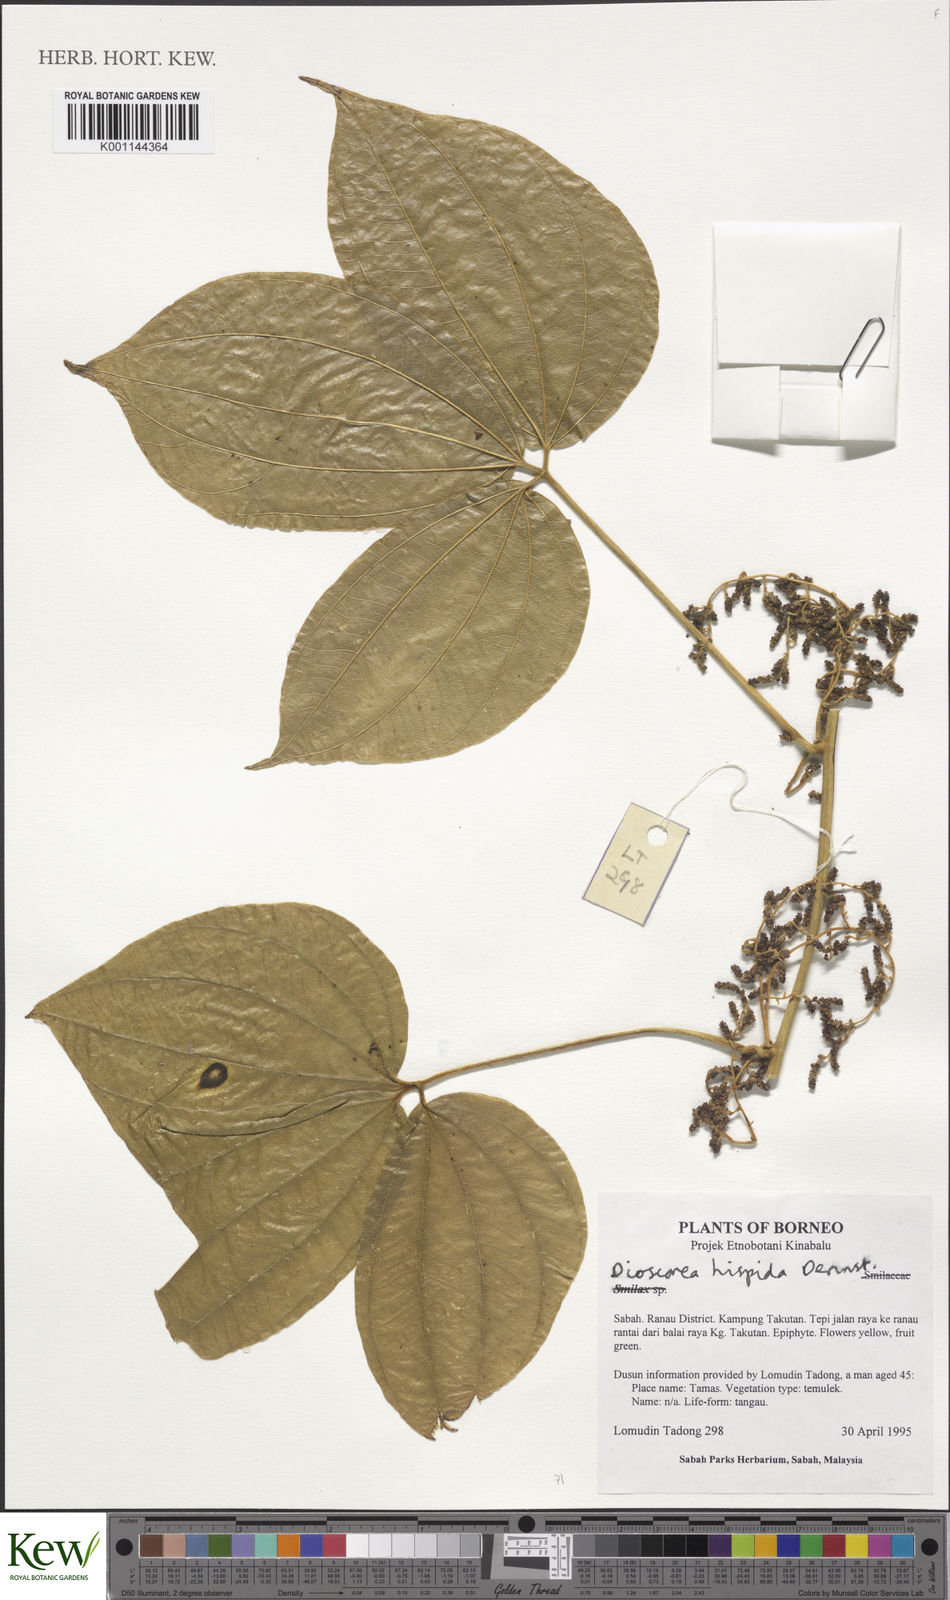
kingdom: Plantae
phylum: Tracheophyta
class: Liliopsida
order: Dioscoreales
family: Dioscoreaceae
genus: Dioscorea
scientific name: Dioscorea hispida
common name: Asiatic bitter yam
